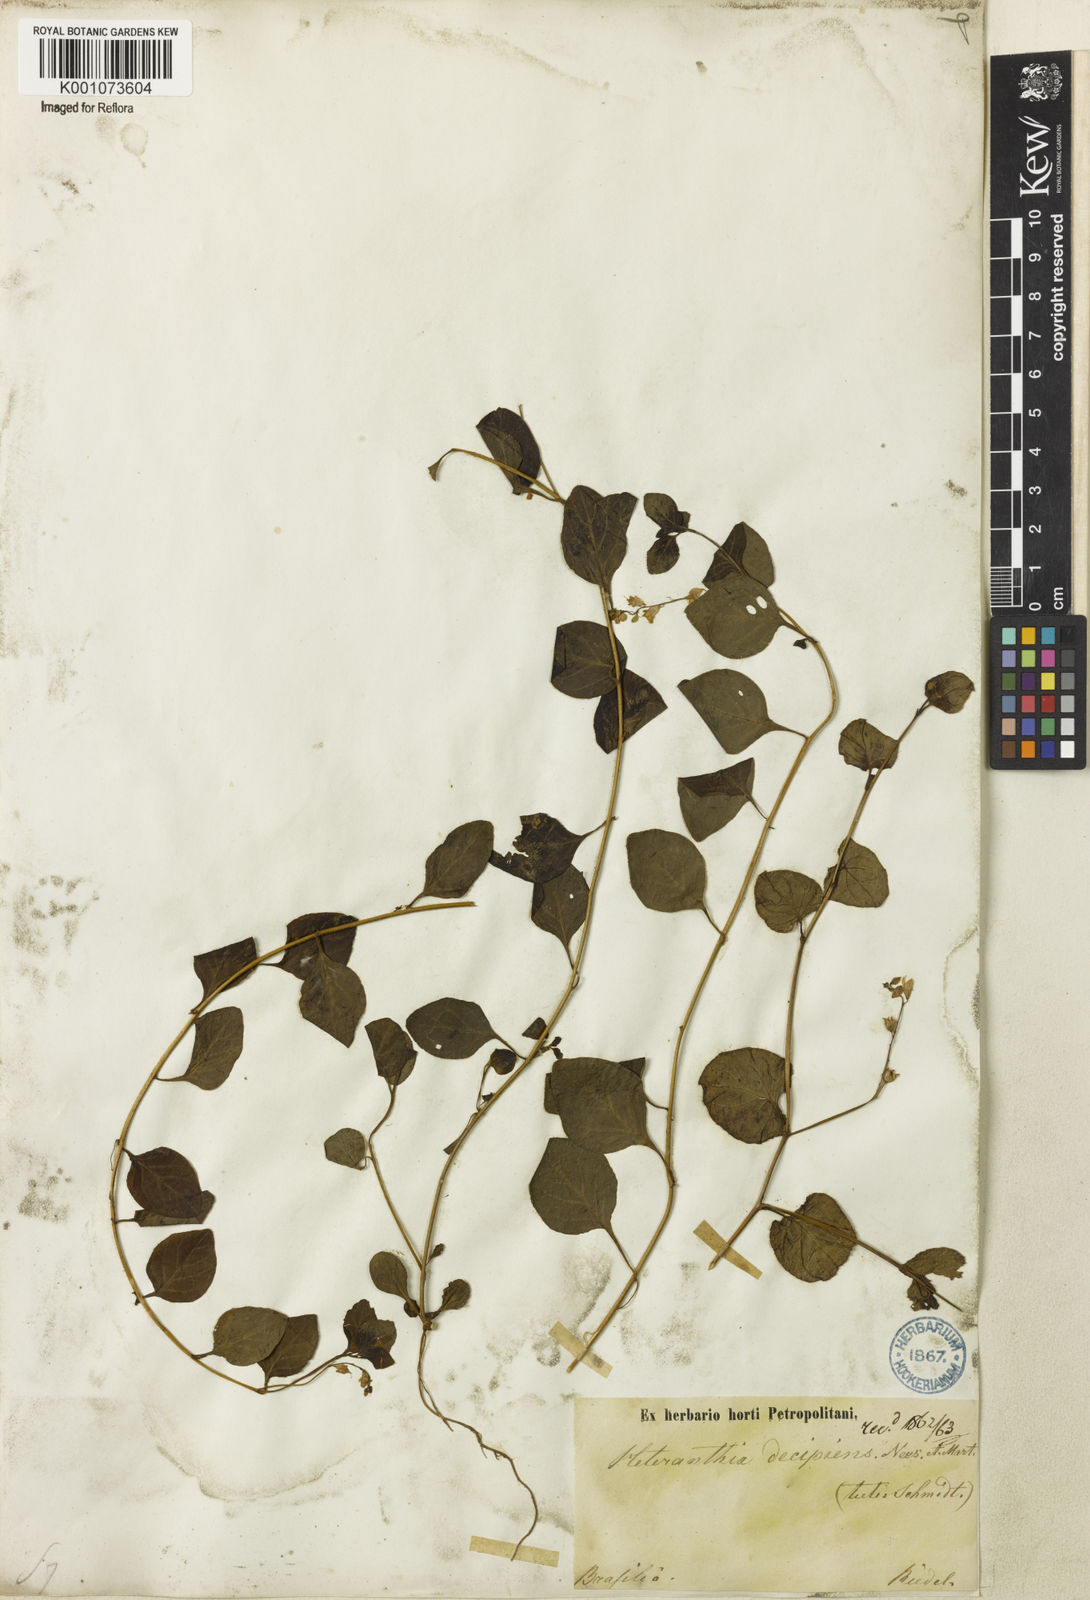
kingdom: Plantae
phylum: Tracheophyta
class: Magnoliopsida
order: Solanales
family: Solanaceae
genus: Heteranthia
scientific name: Heteranthia decipiens
